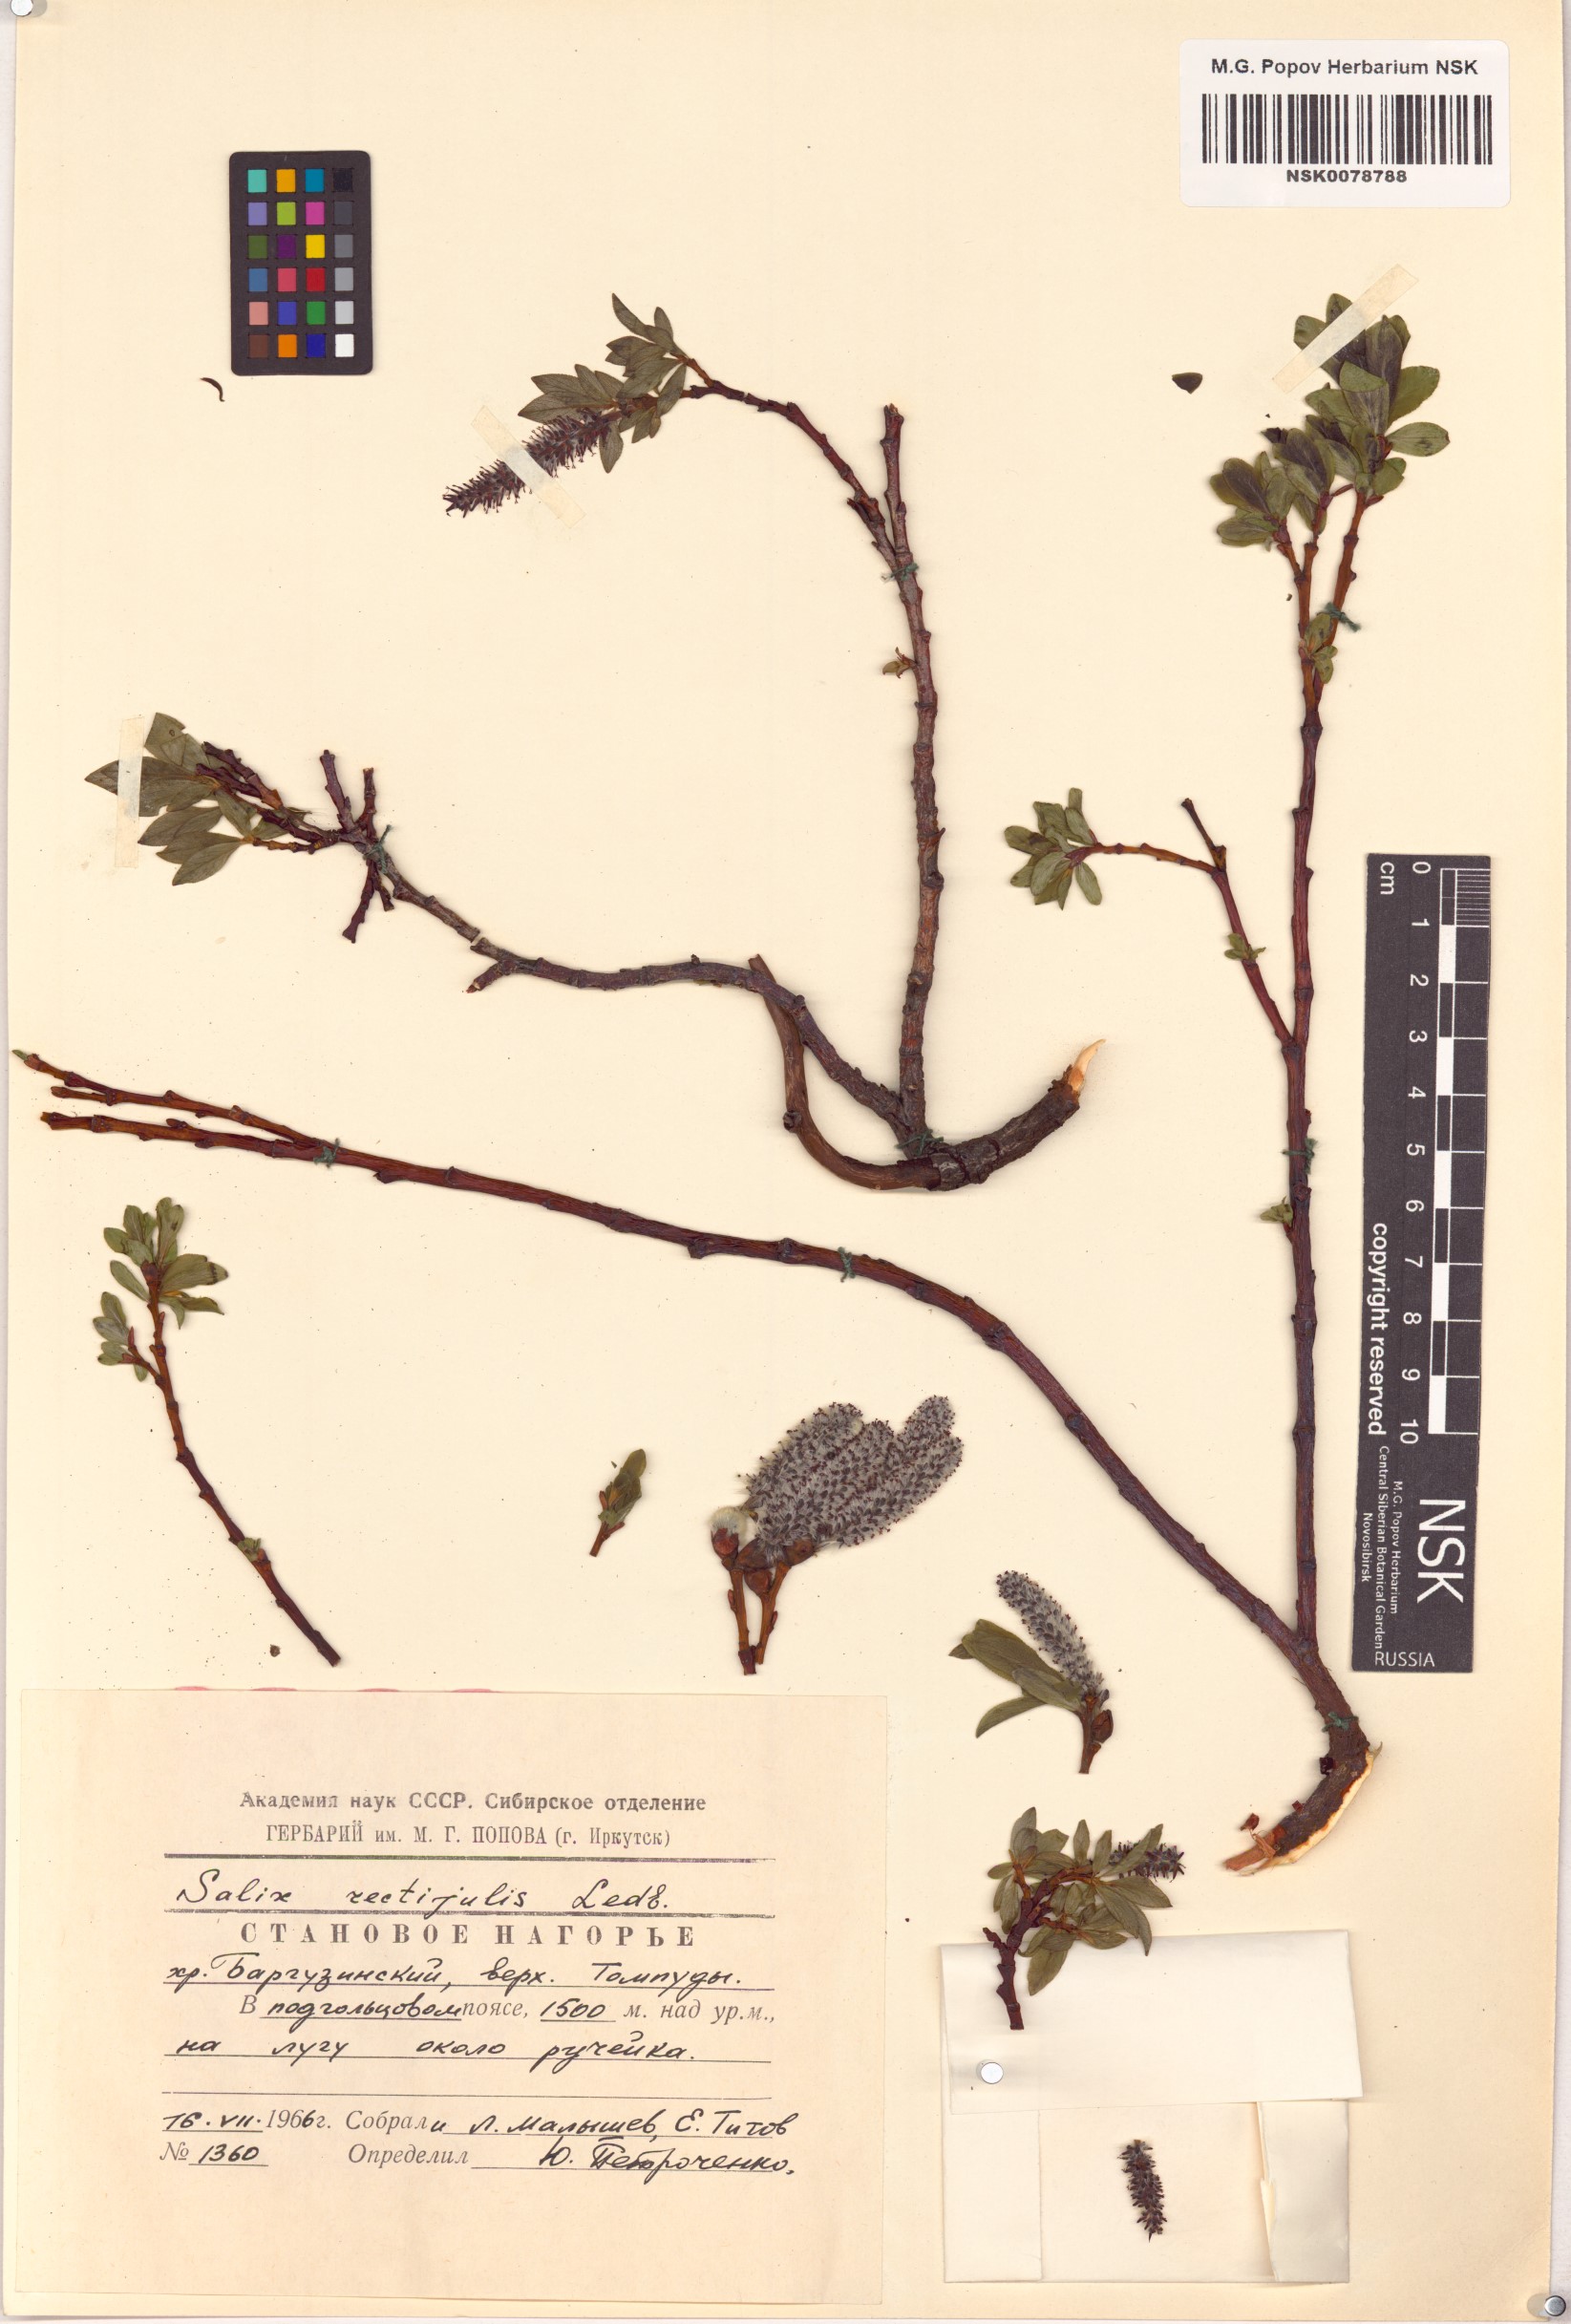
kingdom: Plantae
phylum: Tracheophyta
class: Magnoliopsida
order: Malpighiales
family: Salicaceae
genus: Salix
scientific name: Salix rectijulis
